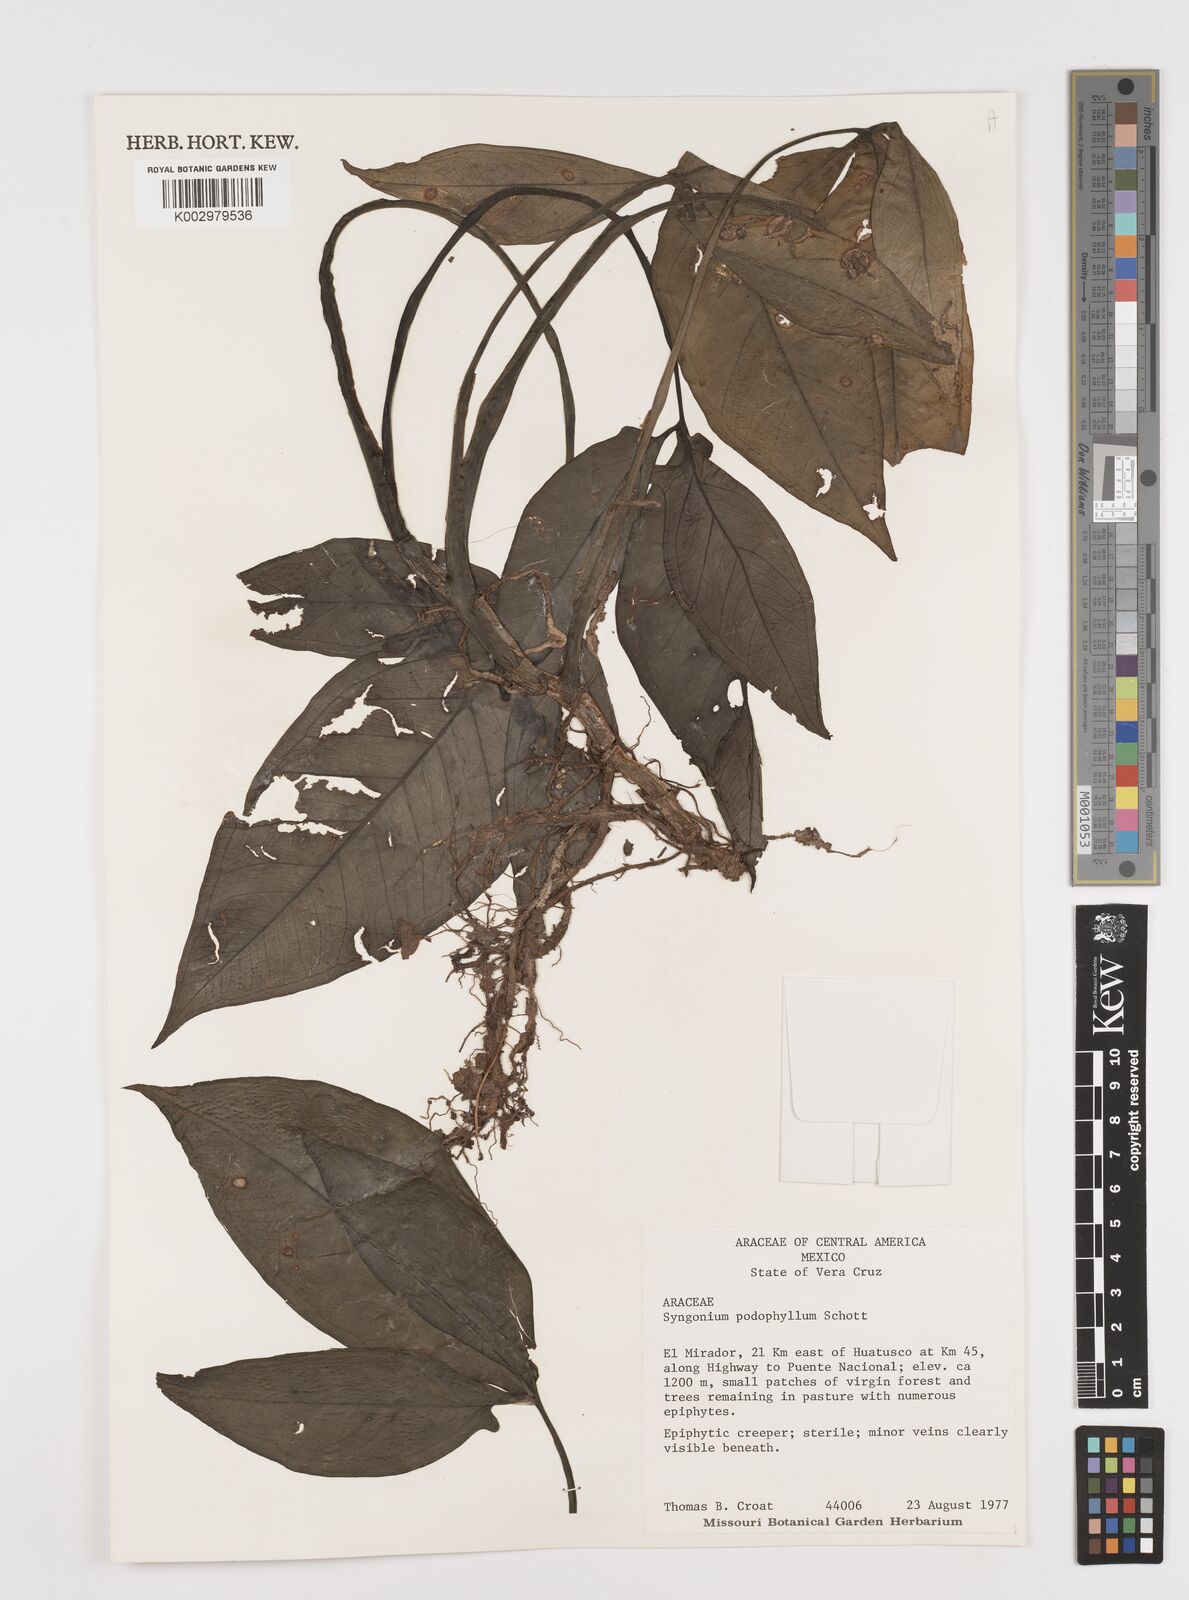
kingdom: Plantae
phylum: Tracheophyta
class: Liliopsida
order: Alismatales
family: Araceae
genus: Syngonium
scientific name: Syngonium podophyllum
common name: American evergreen
